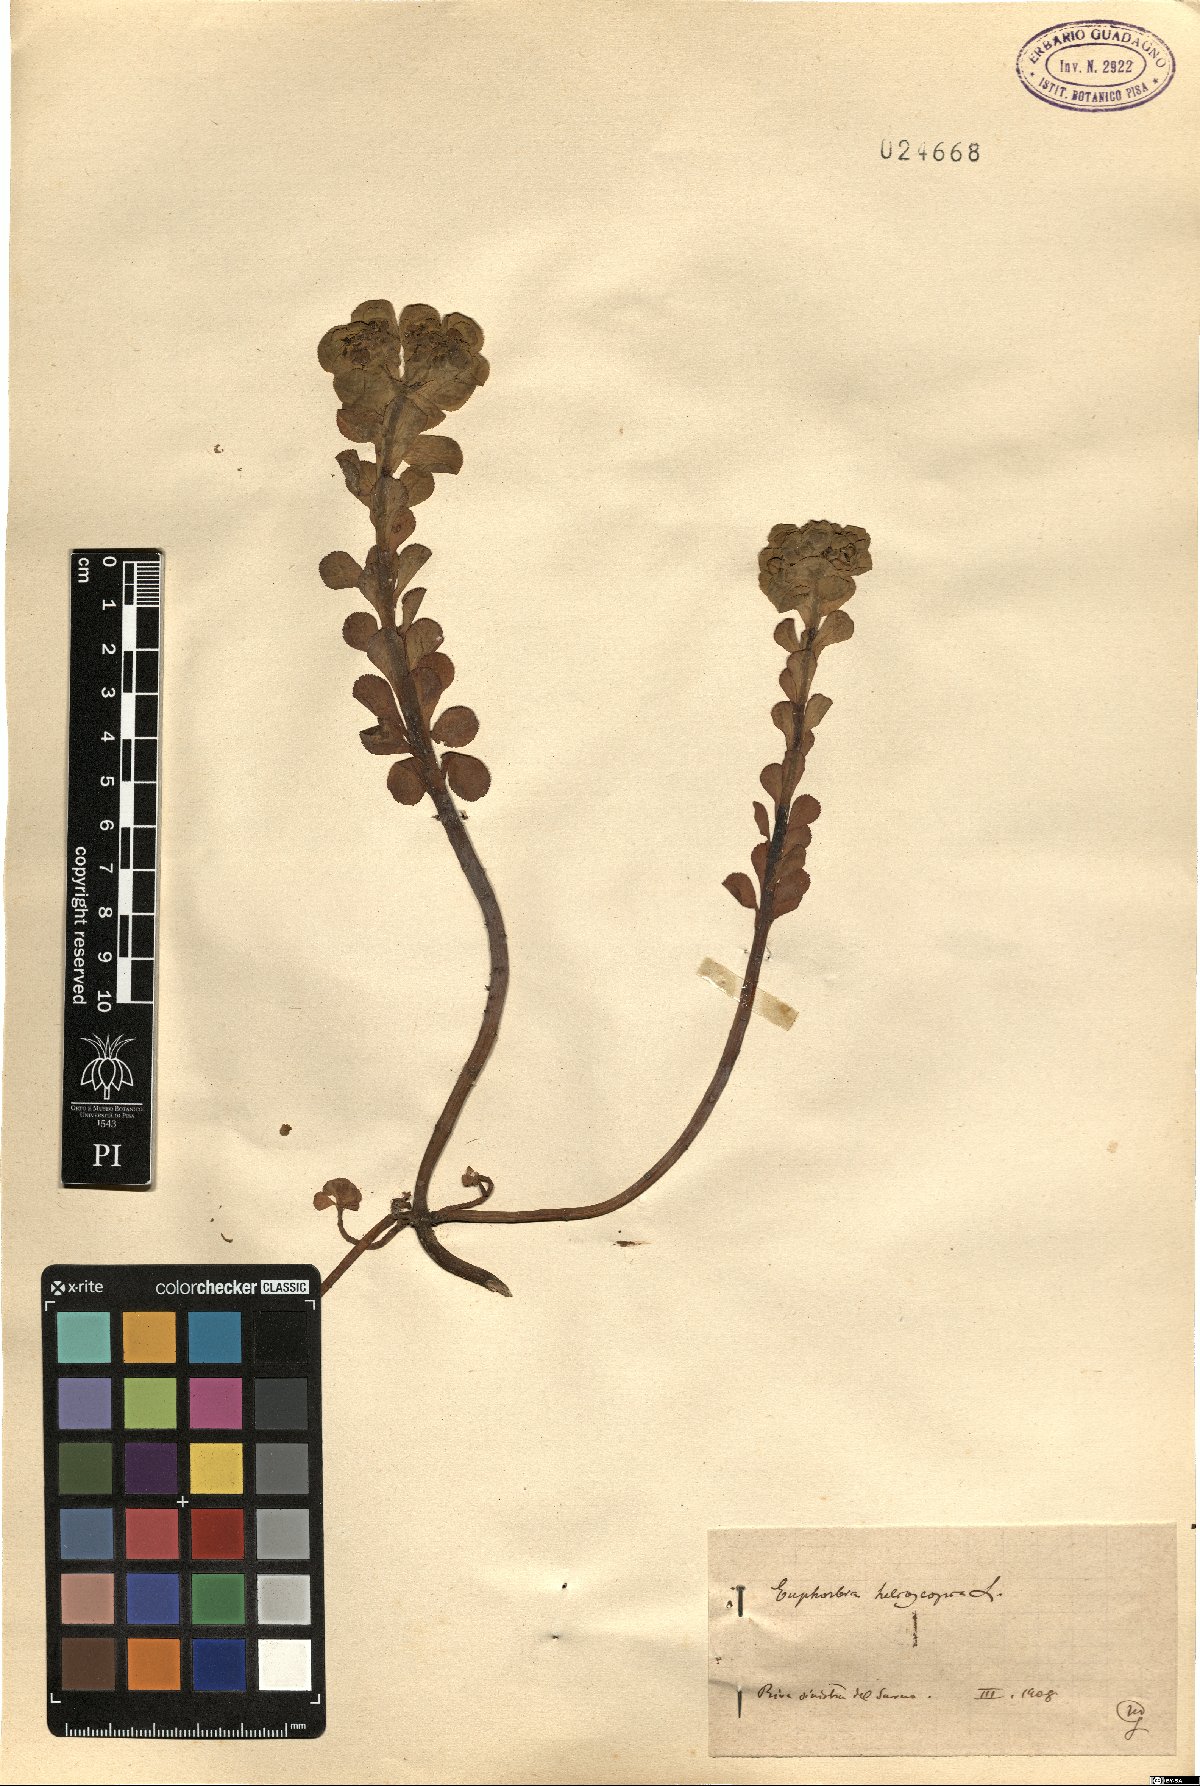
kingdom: Plantae
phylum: Tracheophyta
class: Magnoliopsida
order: Malpighiales
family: Euphorbiaceae
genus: Euphorbia
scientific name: Euphorbia helioscopia
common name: Sun spurge
